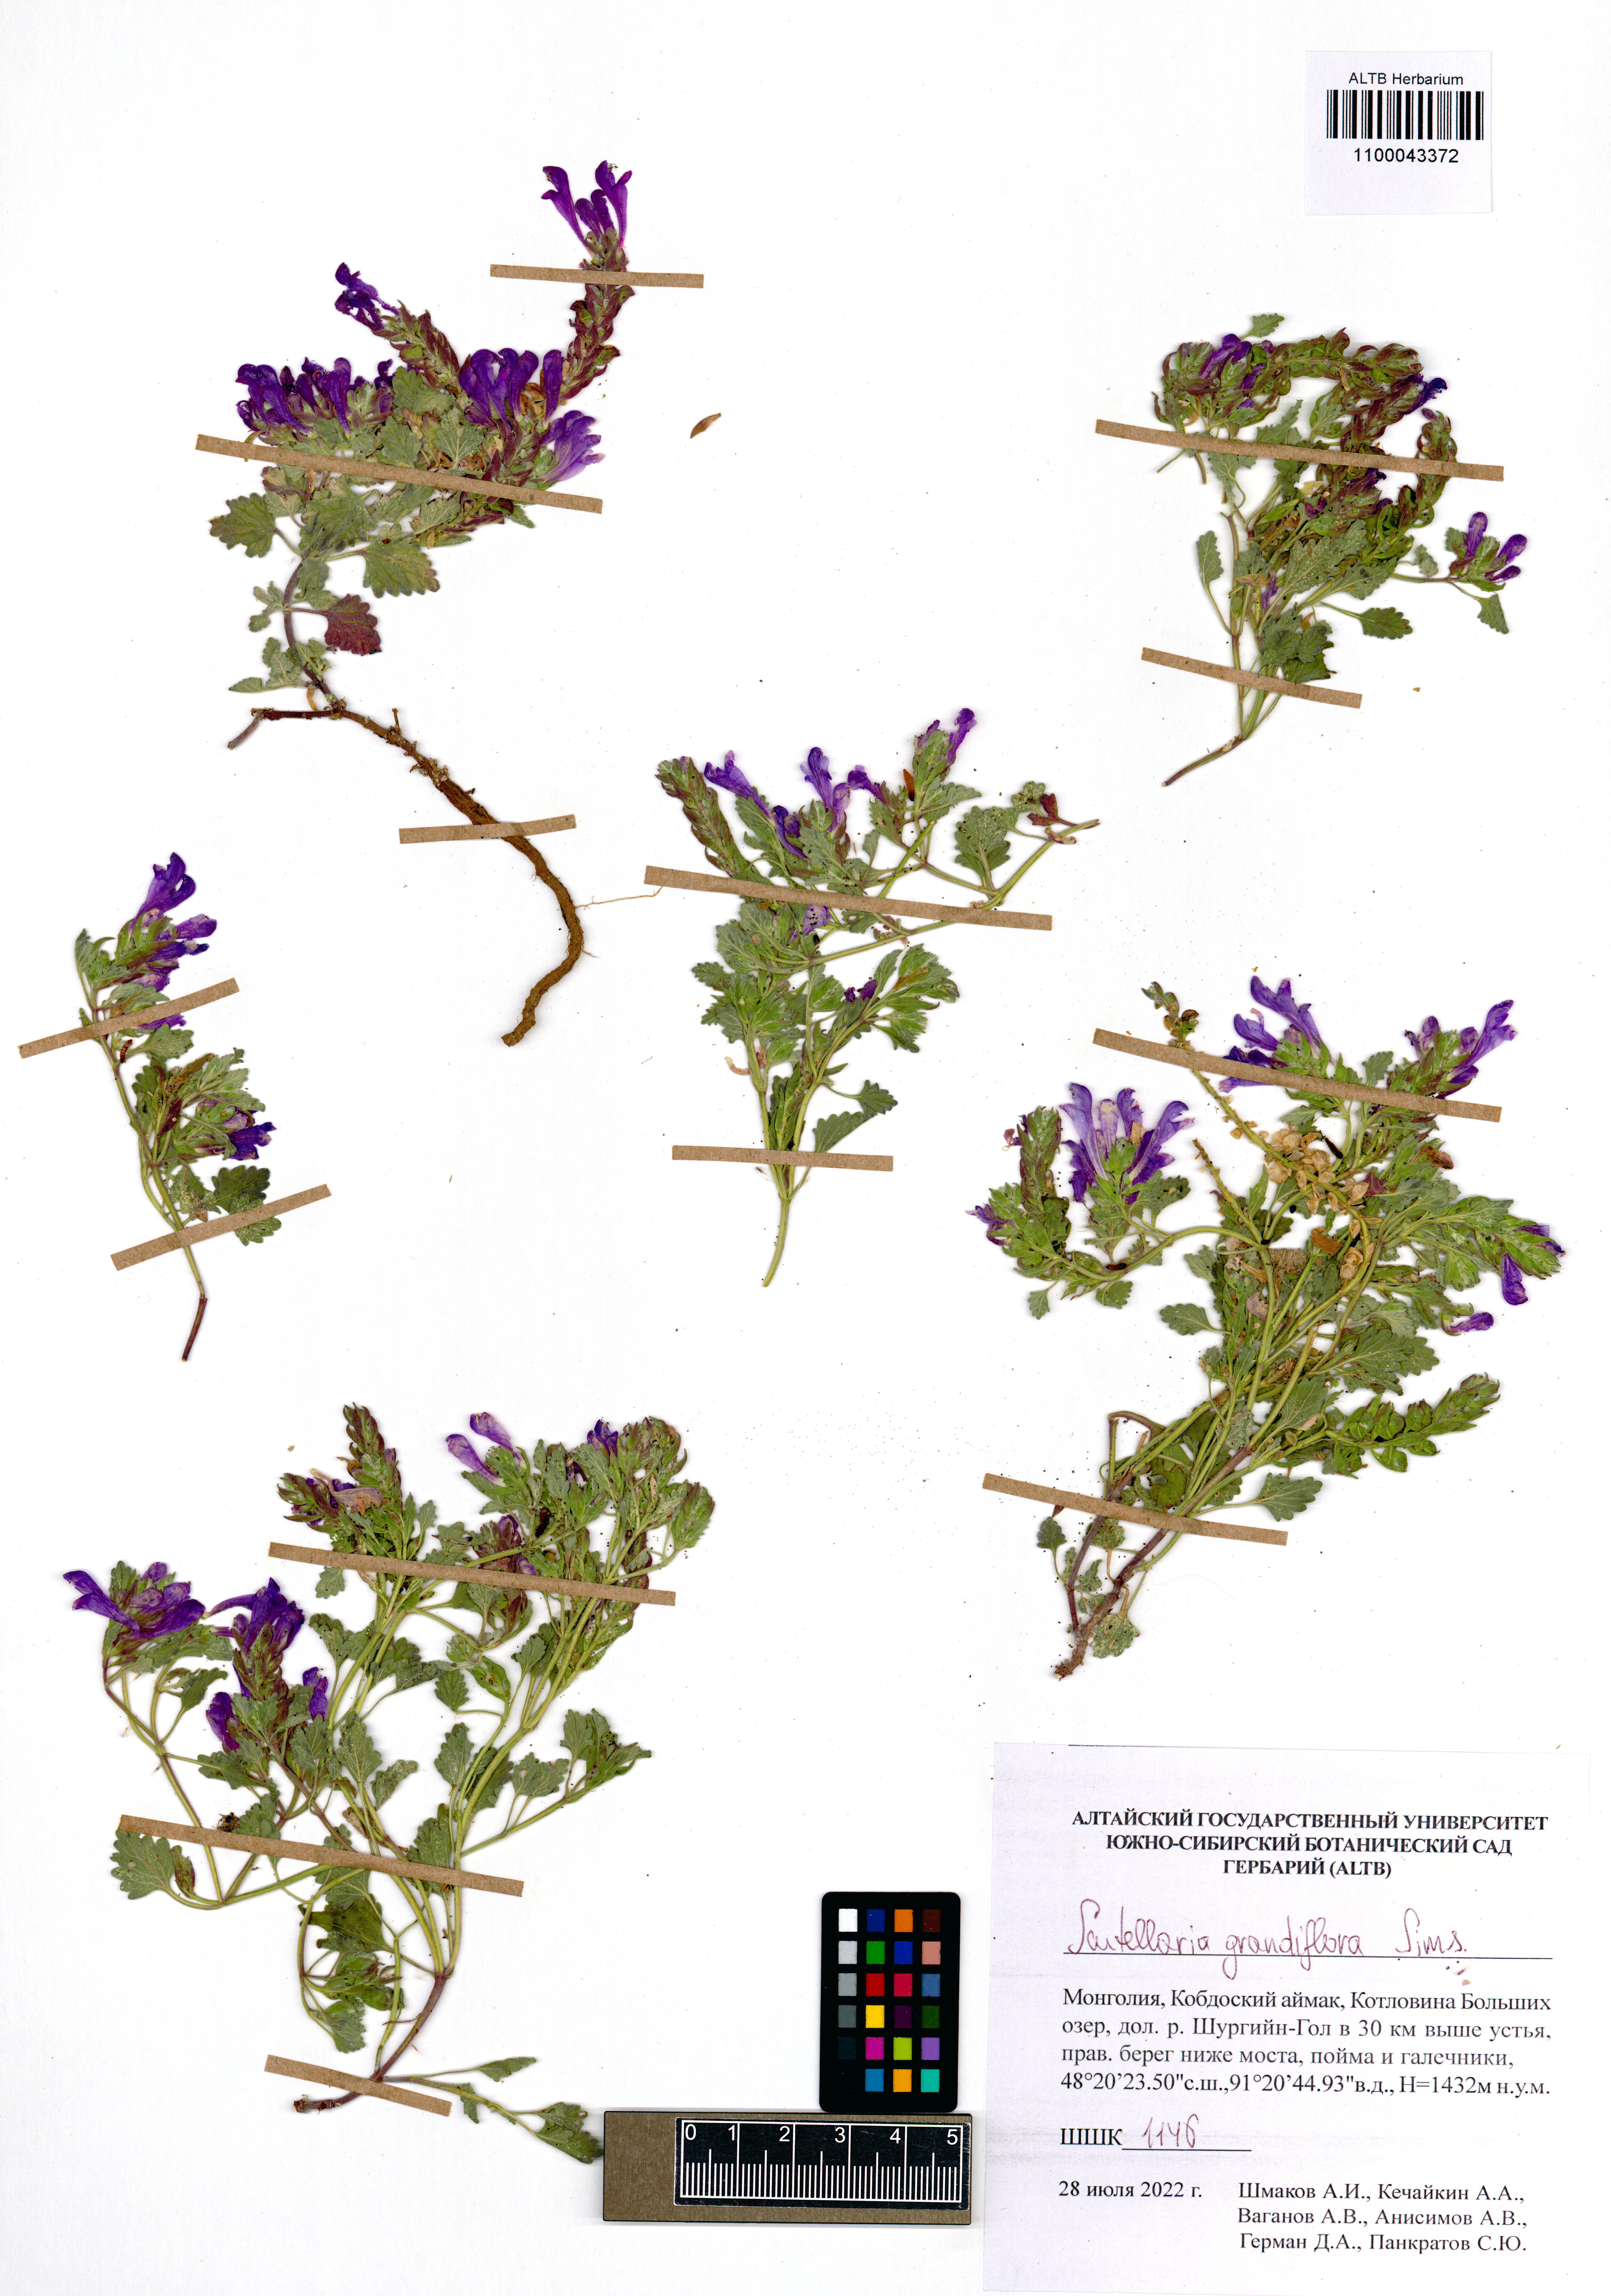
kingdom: Plantae
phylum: Tracheophyta
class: Magnoliopsida
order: Lamiales
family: Lamiaceae
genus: Scutellaria
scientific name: Scutellaria grandiflora
